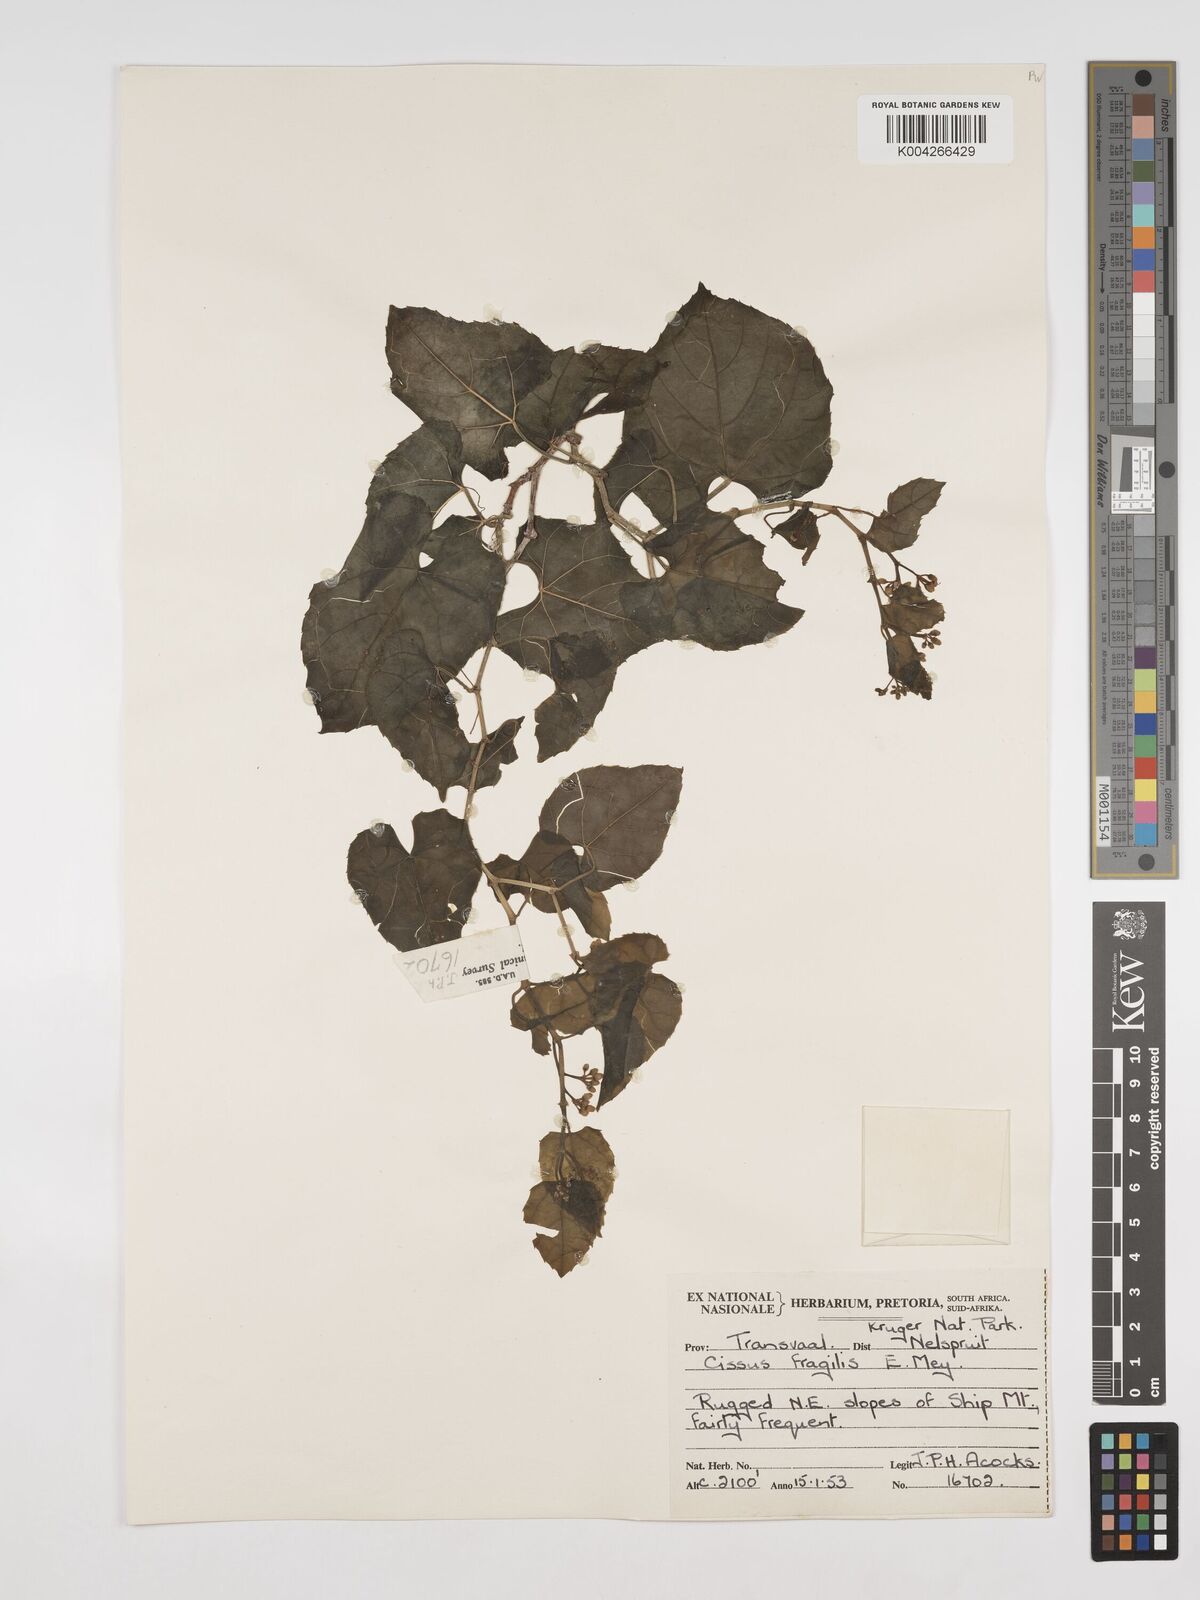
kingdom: Plantae
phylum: Tracheophyta
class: Magnoliopsida
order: Vitales
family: Vitaceae
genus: Cissus
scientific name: Cissus fragilis
